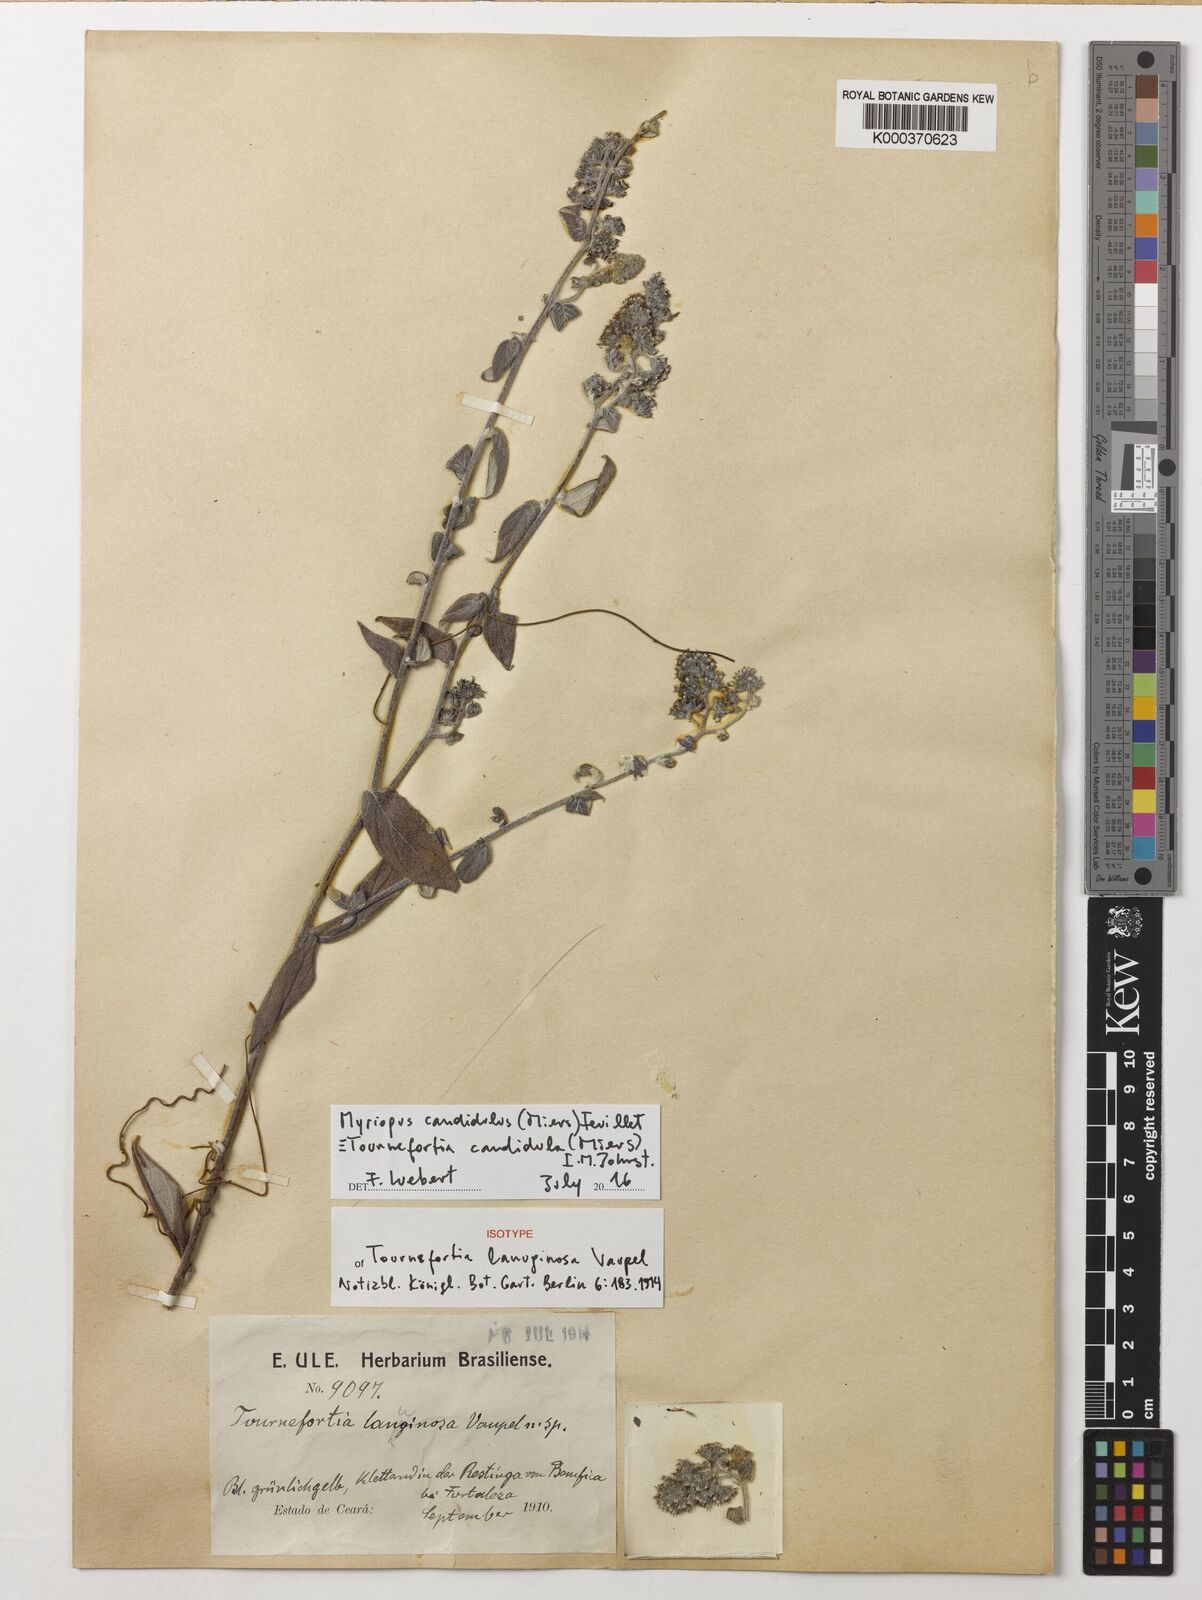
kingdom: Plantae
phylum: Tracheophyta
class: Magnoliopsida
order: Boraginales
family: Heliotropiaceae
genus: Myriopus
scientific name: Myriopus candidulus
